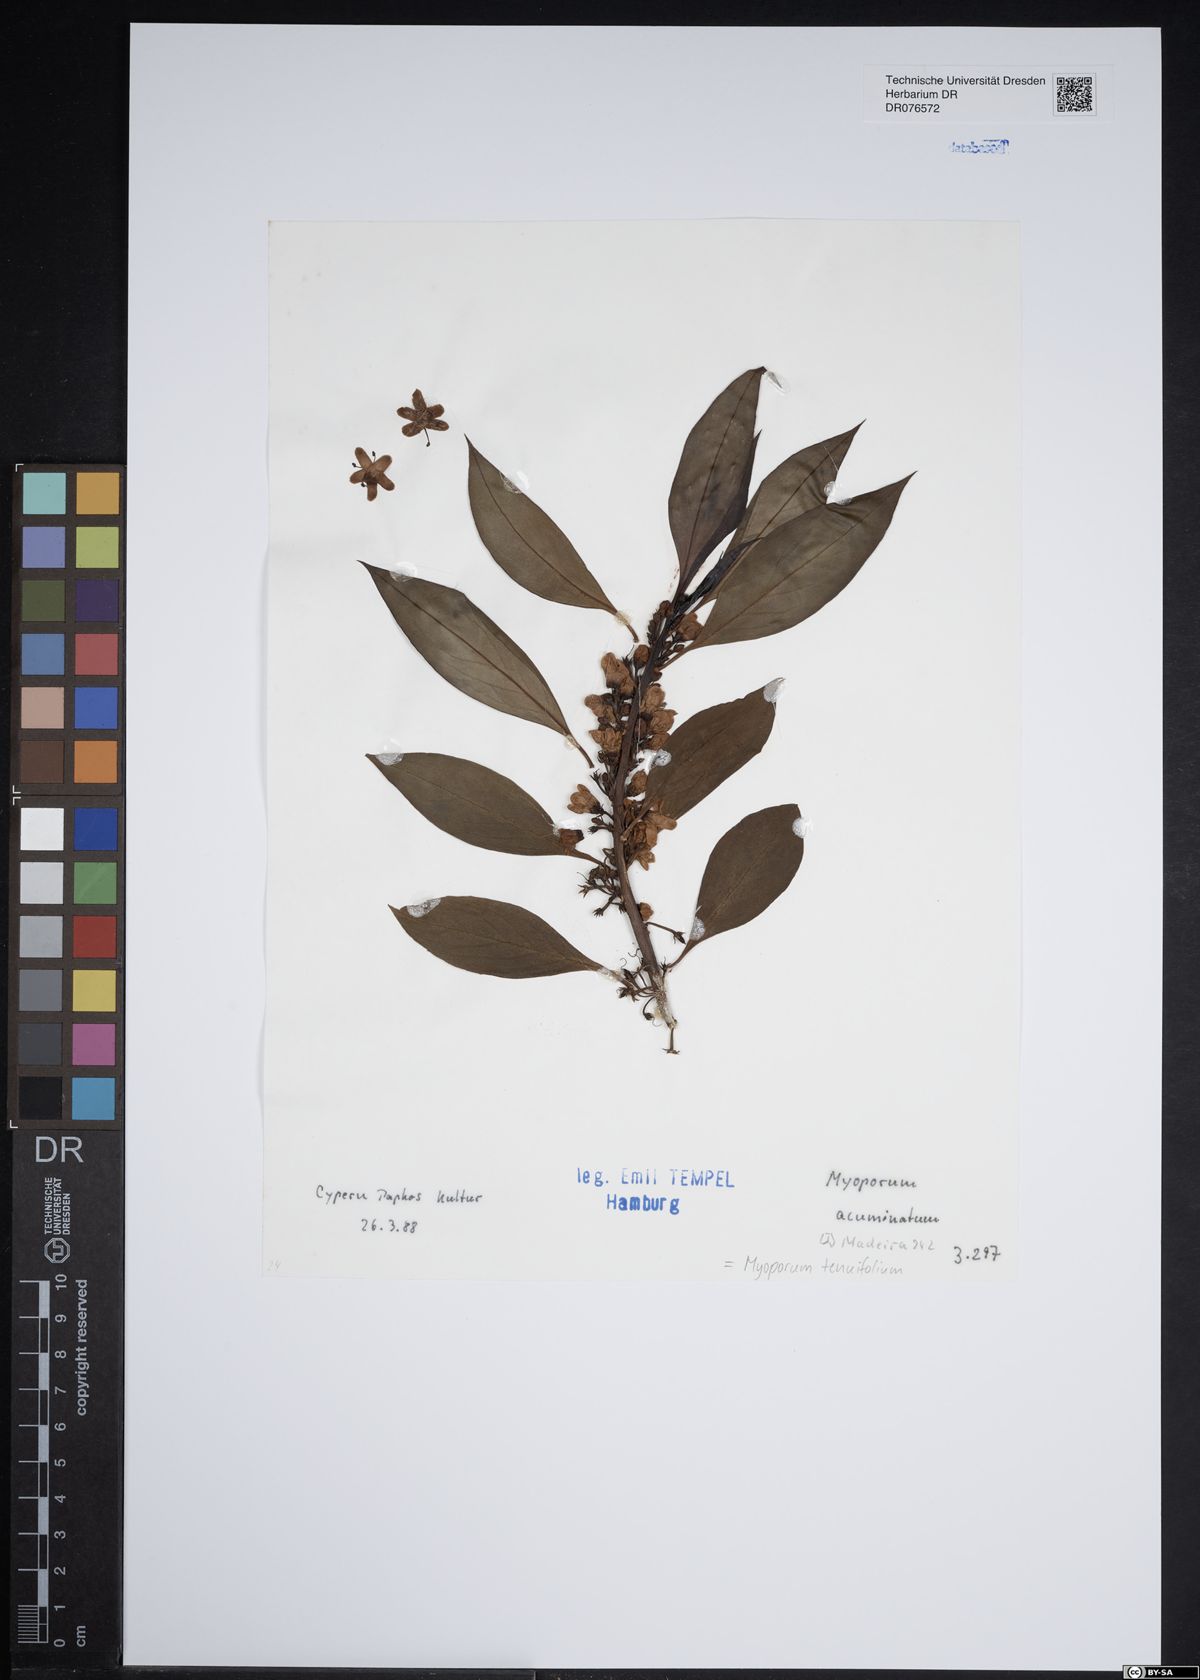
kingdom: Plantae
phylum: Tracheophyta
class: Magnoliopsida
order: Lamiales
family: Scrophulariaceae
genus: Myoporum
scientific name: Myoporum tenuifolium
